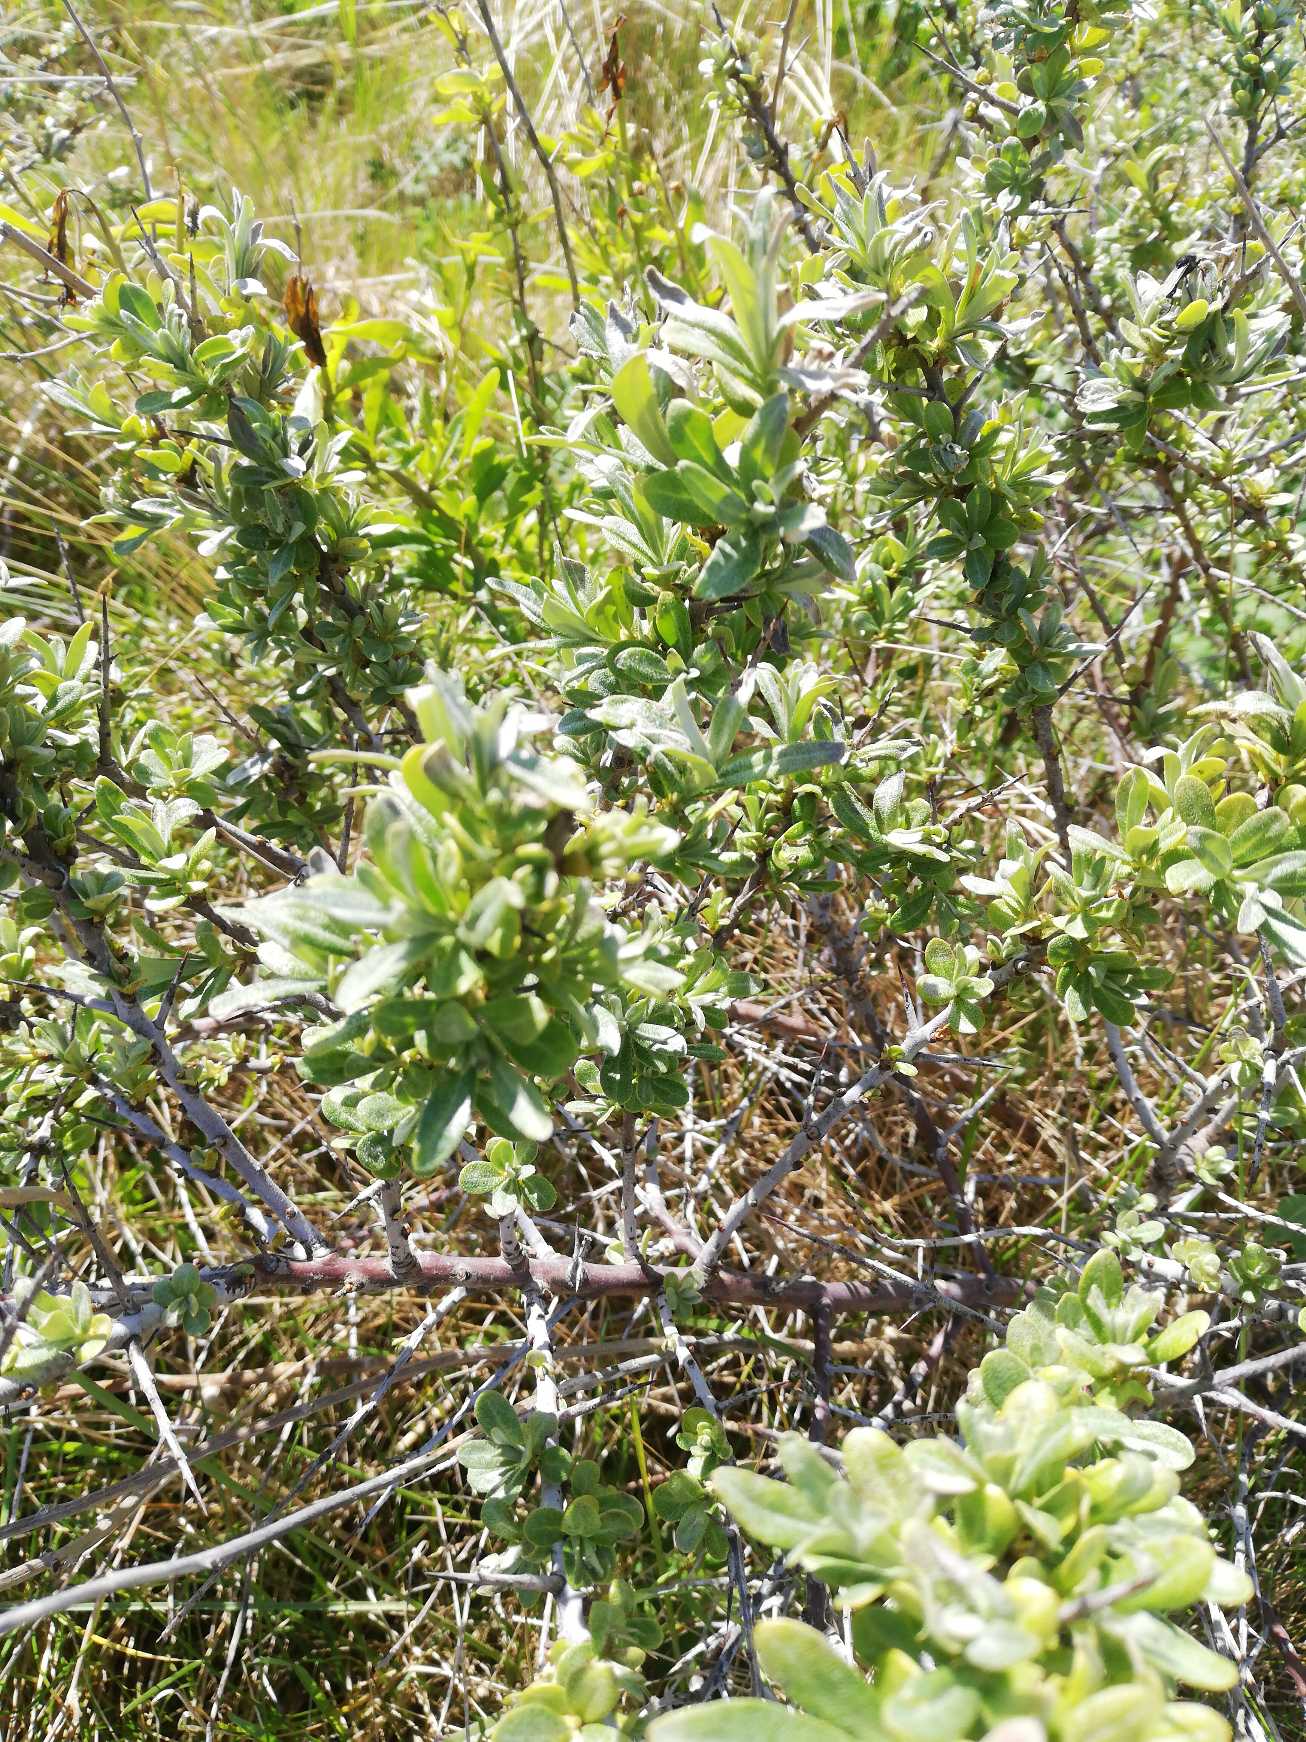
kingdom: Plantae
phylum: Tracheophyta
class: Magnoliopsida
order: Rosales
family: Elaeagnaceae
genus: Hippophae
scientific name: Hippophae rhamnoides
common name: Havtorn
